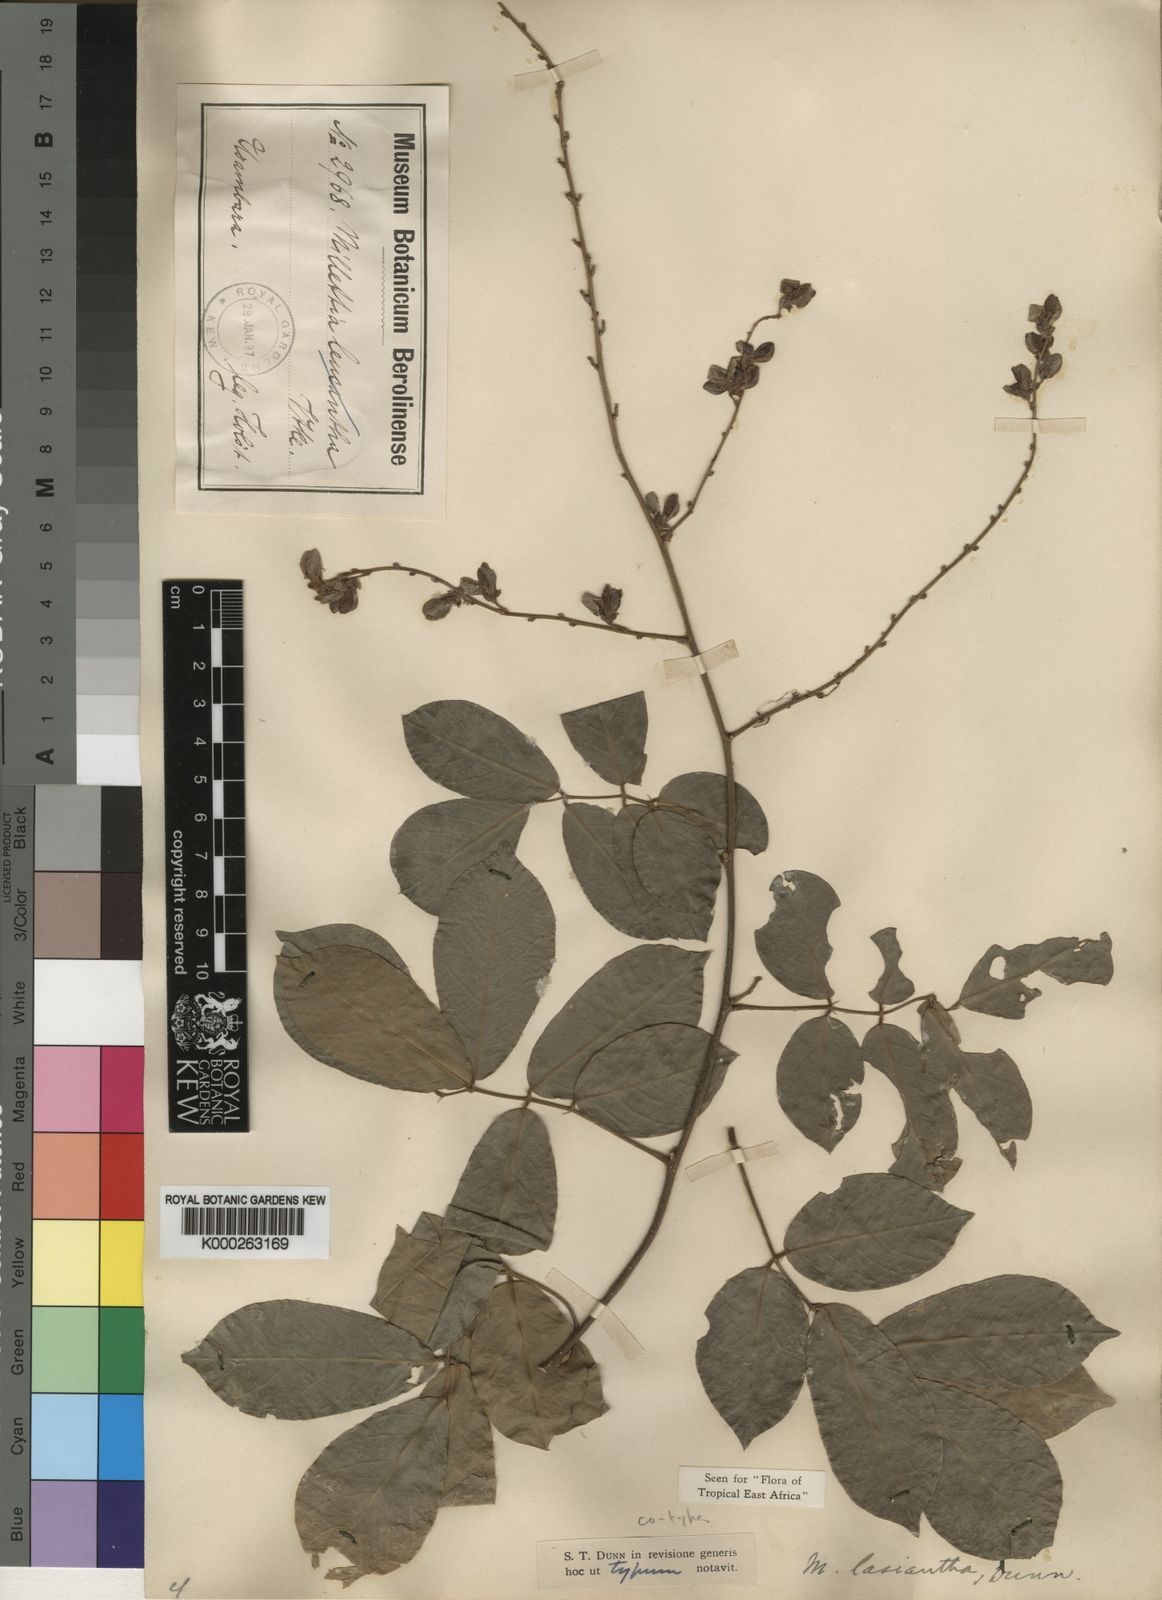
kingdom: Plantae
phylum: Tracheophyta
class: Magnoliopsida
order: Fabales
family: Fabaceae
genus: Millettia
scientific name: Millettia lasiantha
